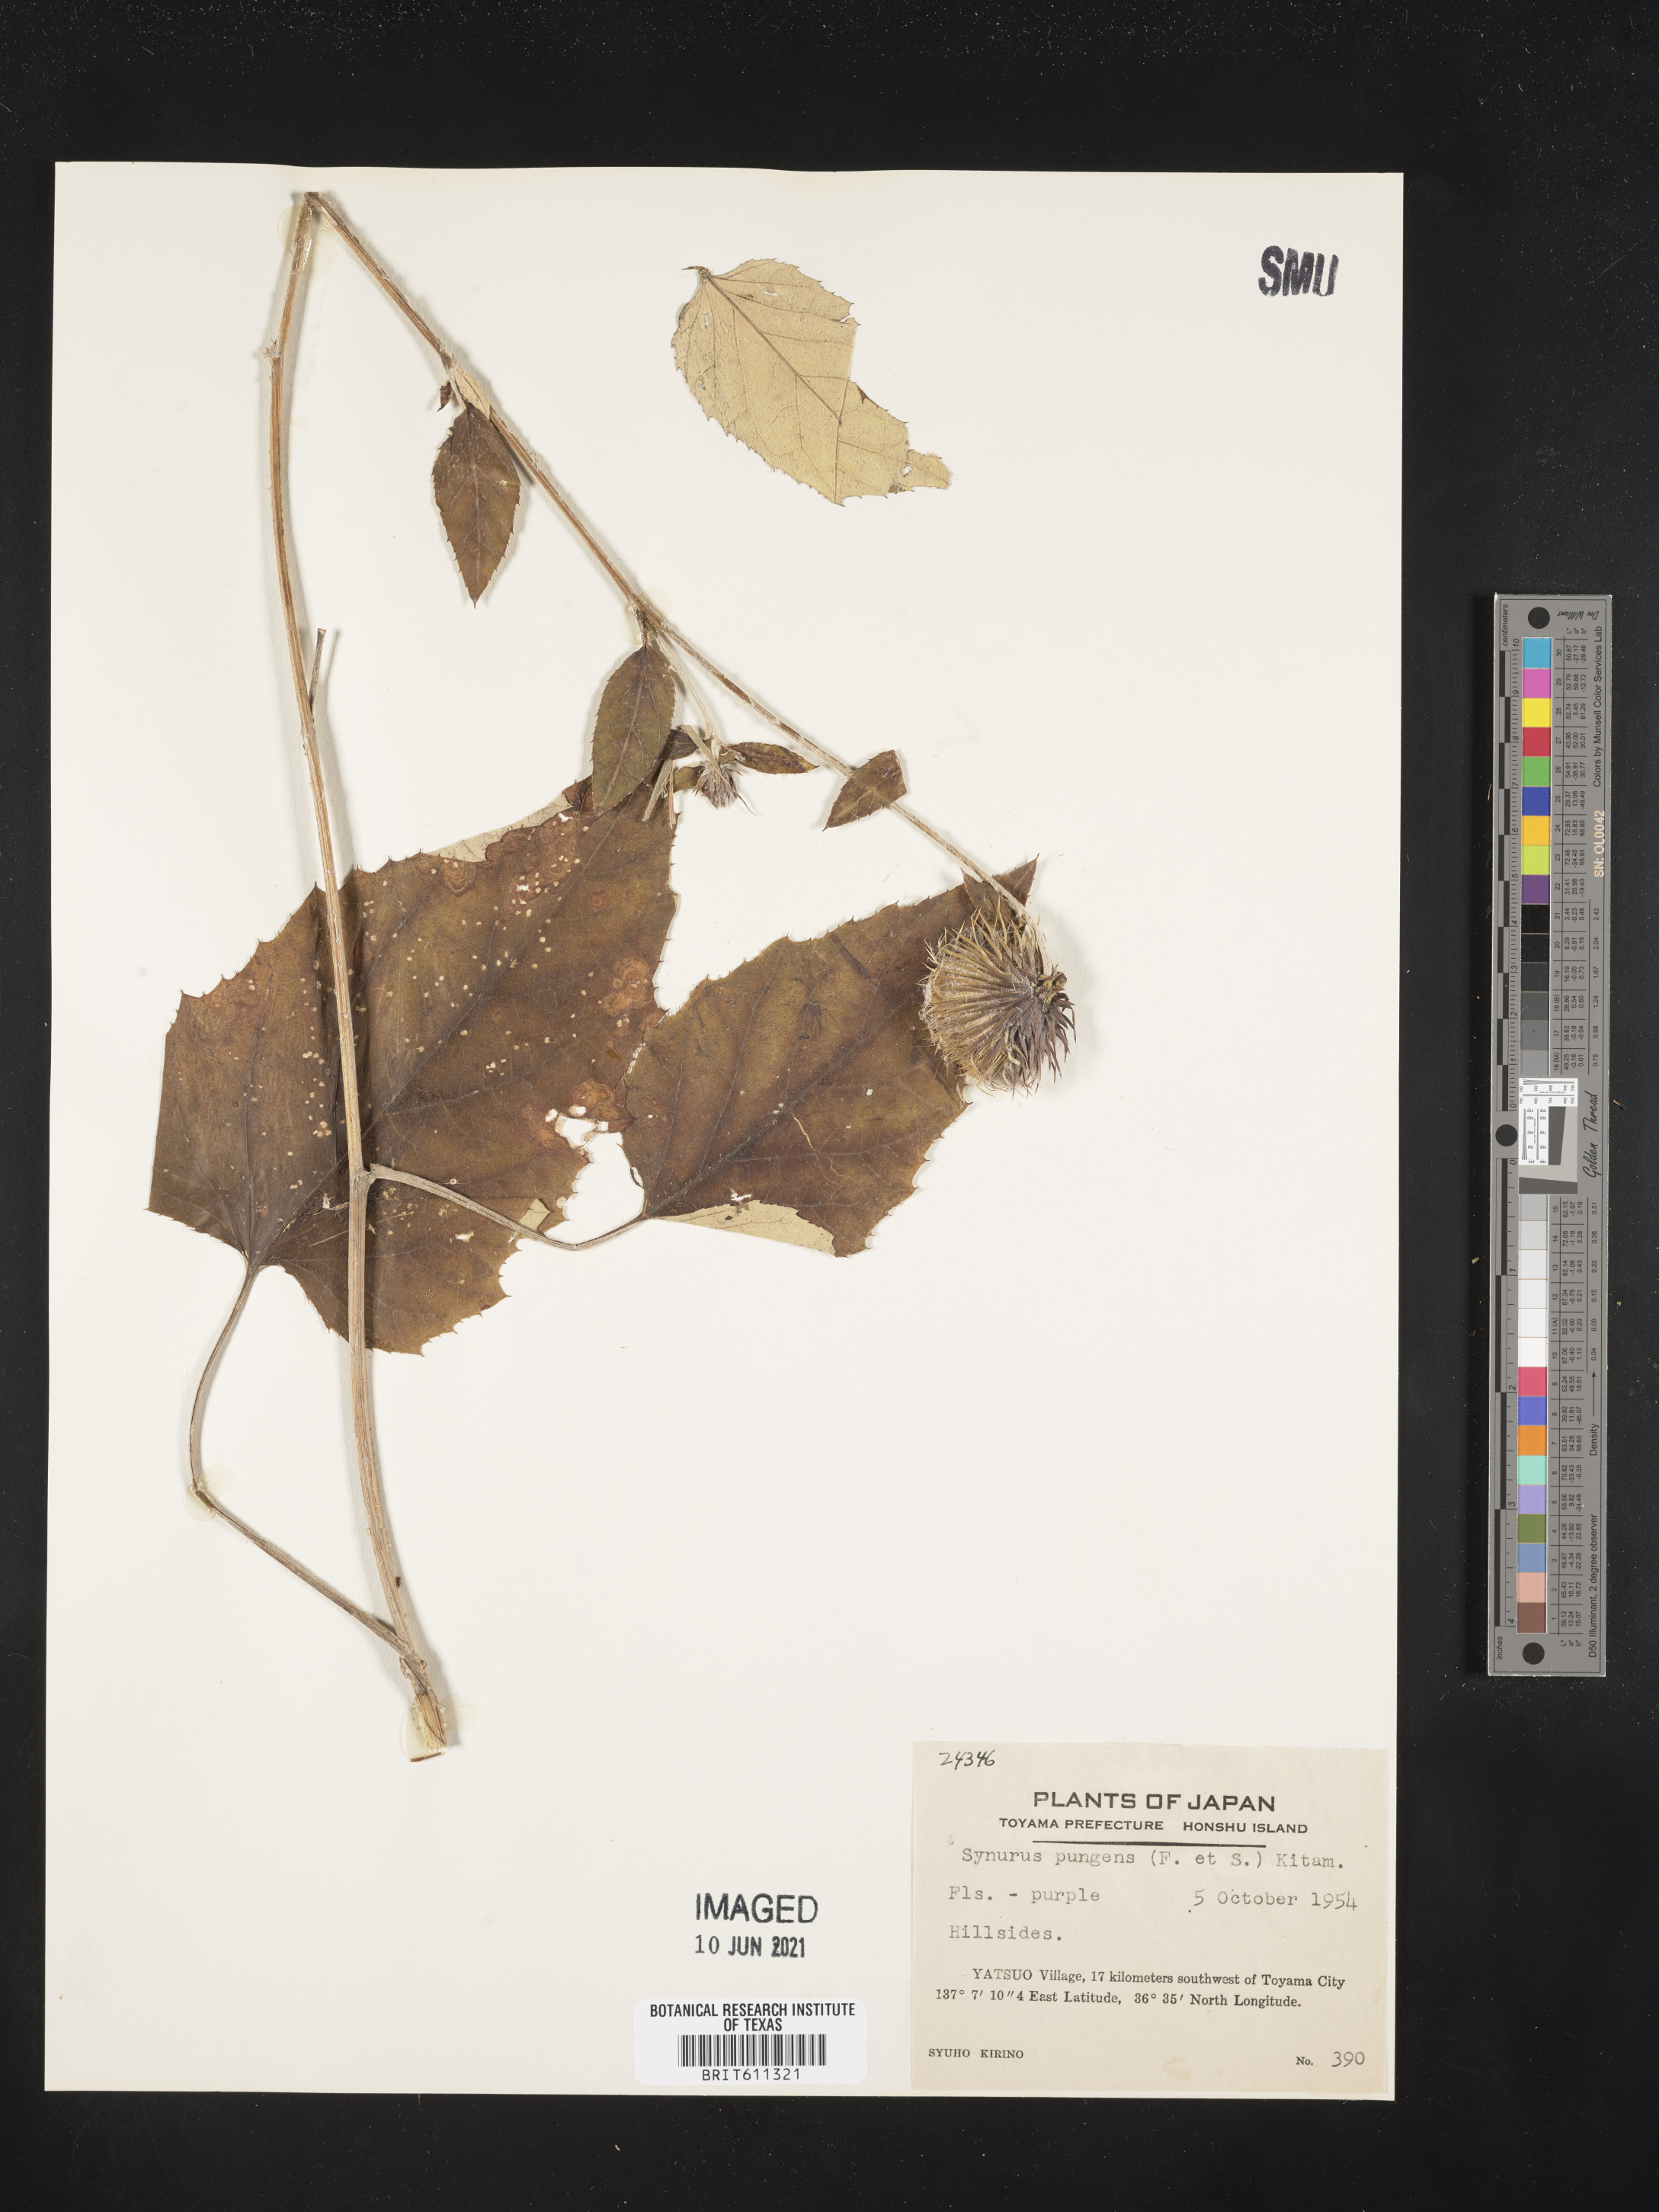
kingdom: Plantae
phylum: Tracheophyta
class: Magnoliopsida
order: Asterales
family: Asteraceae
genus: Synurus
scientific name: Synurus pungens
